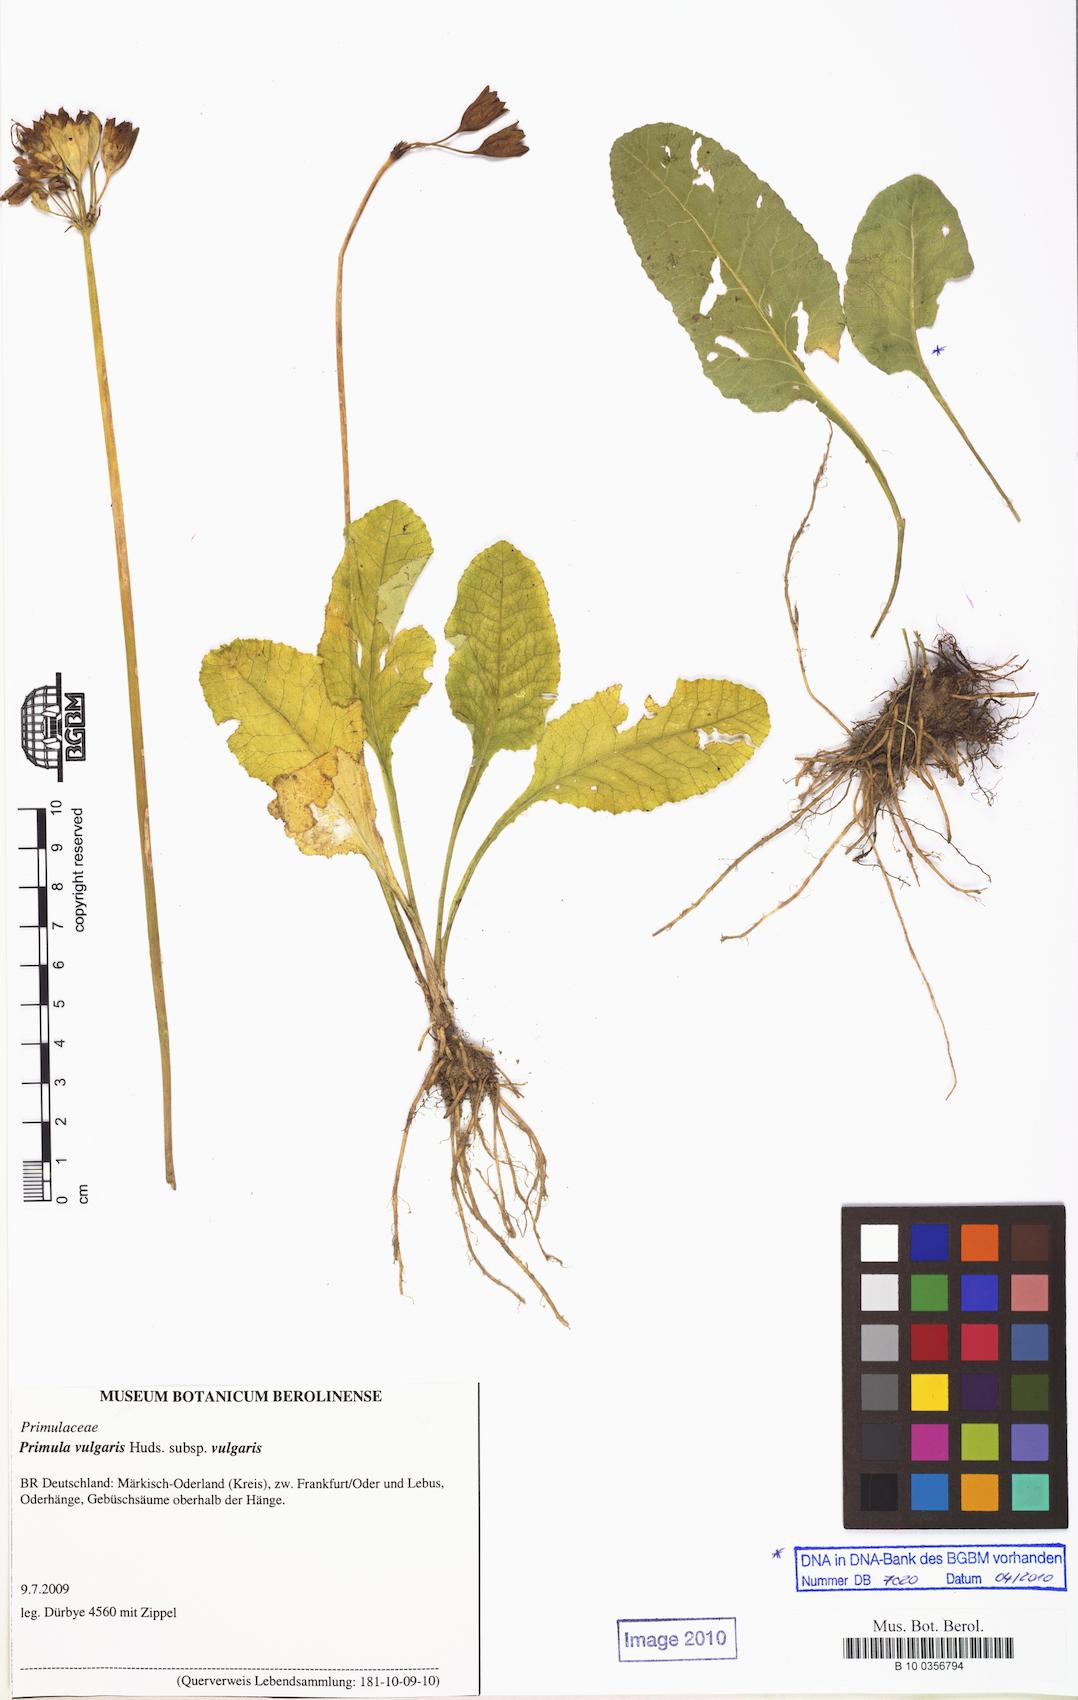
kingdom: Plantae
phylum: Tracheophyta
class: Magnoliopsida
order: Ericales
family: Primulaceae
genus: Primula
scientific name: Primula vulgaris
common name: Primrose
